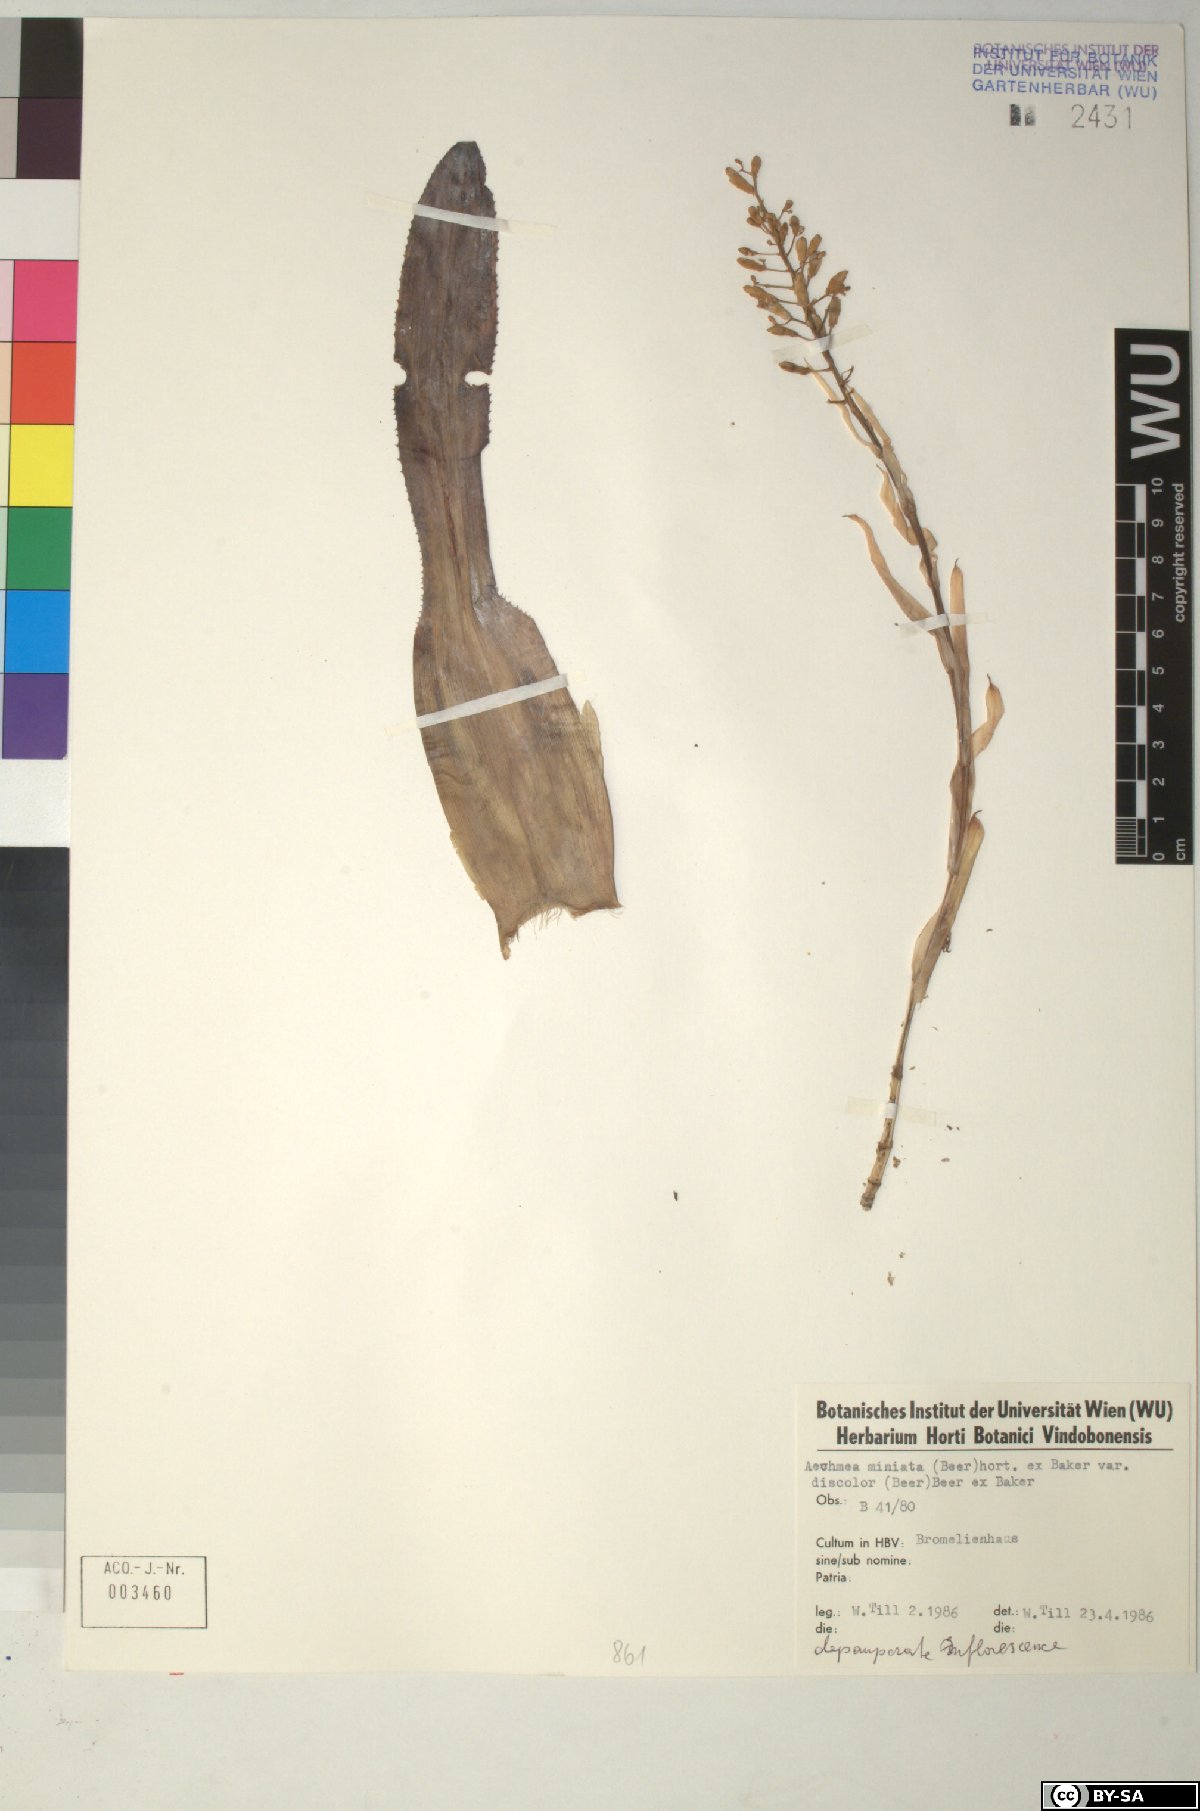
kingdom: Plantae
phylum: Tracheophyta
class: Liliopsida
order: Poales
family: Bromeliaceae
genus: Aechmea
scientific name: Aechmea miniata
